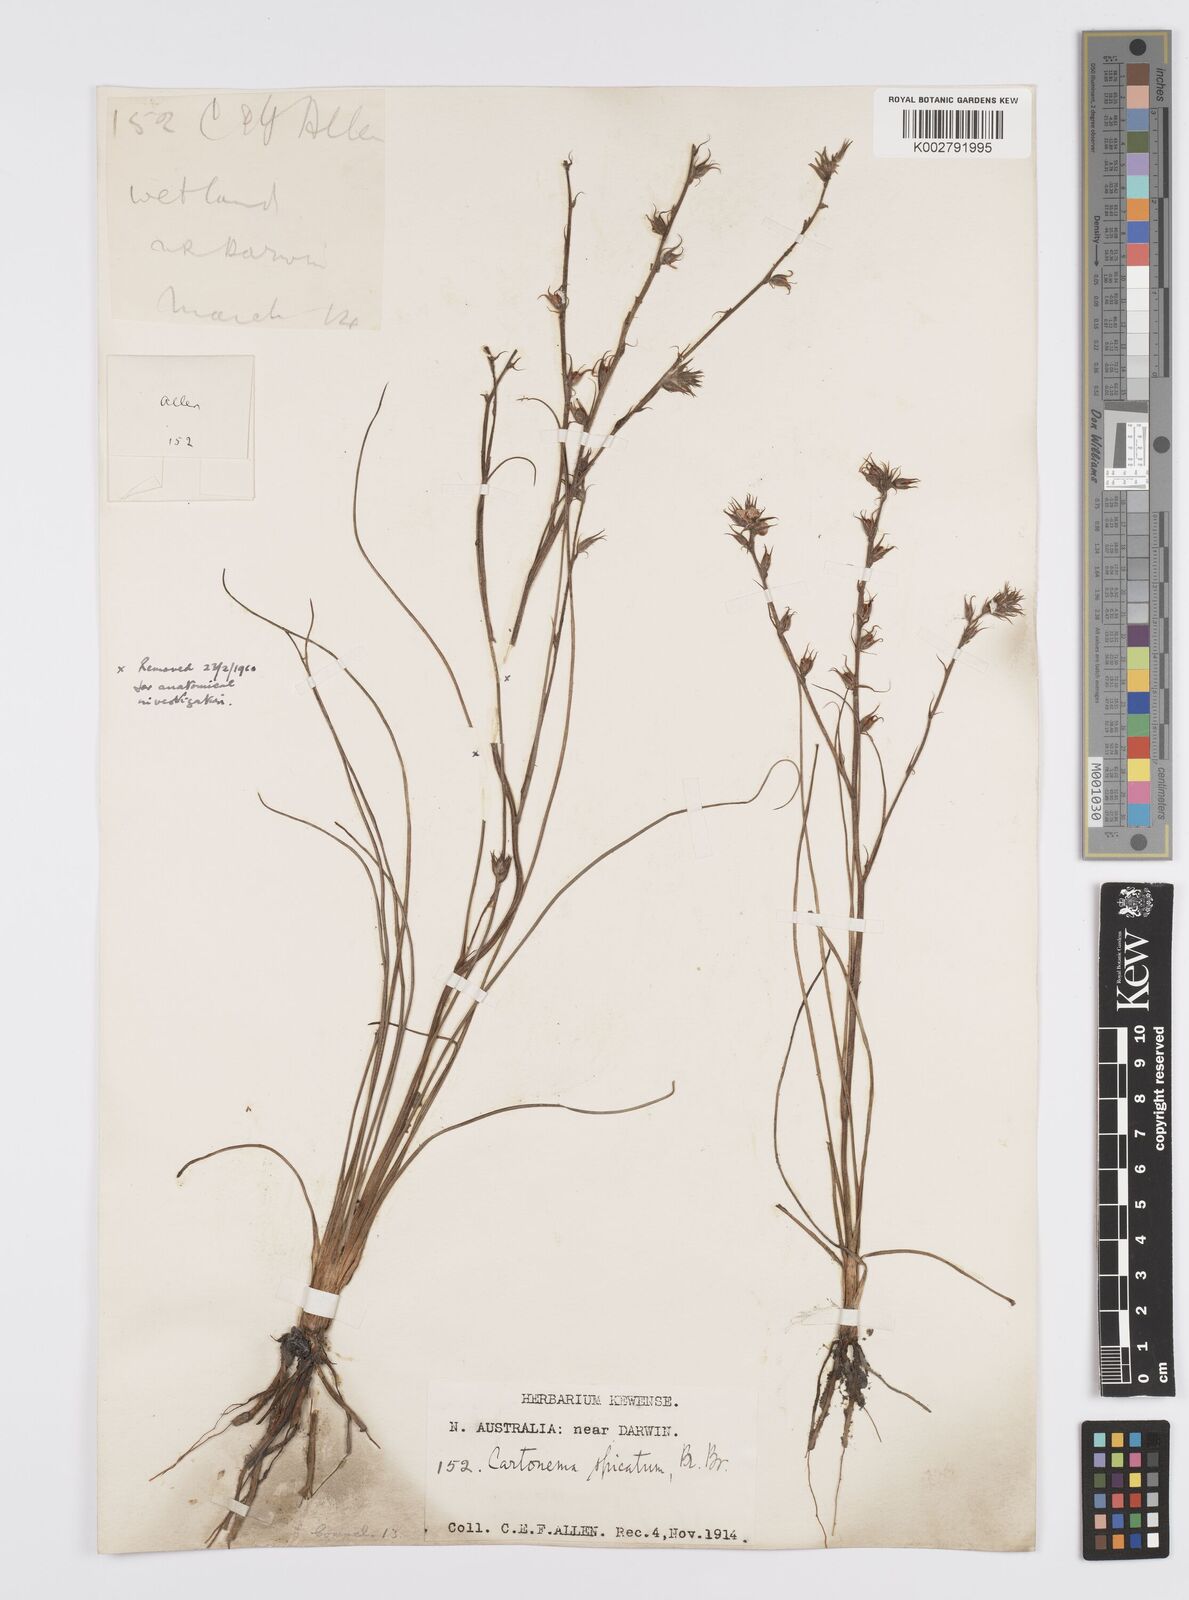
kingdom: Plantae
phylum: Tracheophyta
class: Liliopsida
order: Commelinales
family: Commelinaceae
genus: Cartonema
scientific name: Cartonema spicatum
